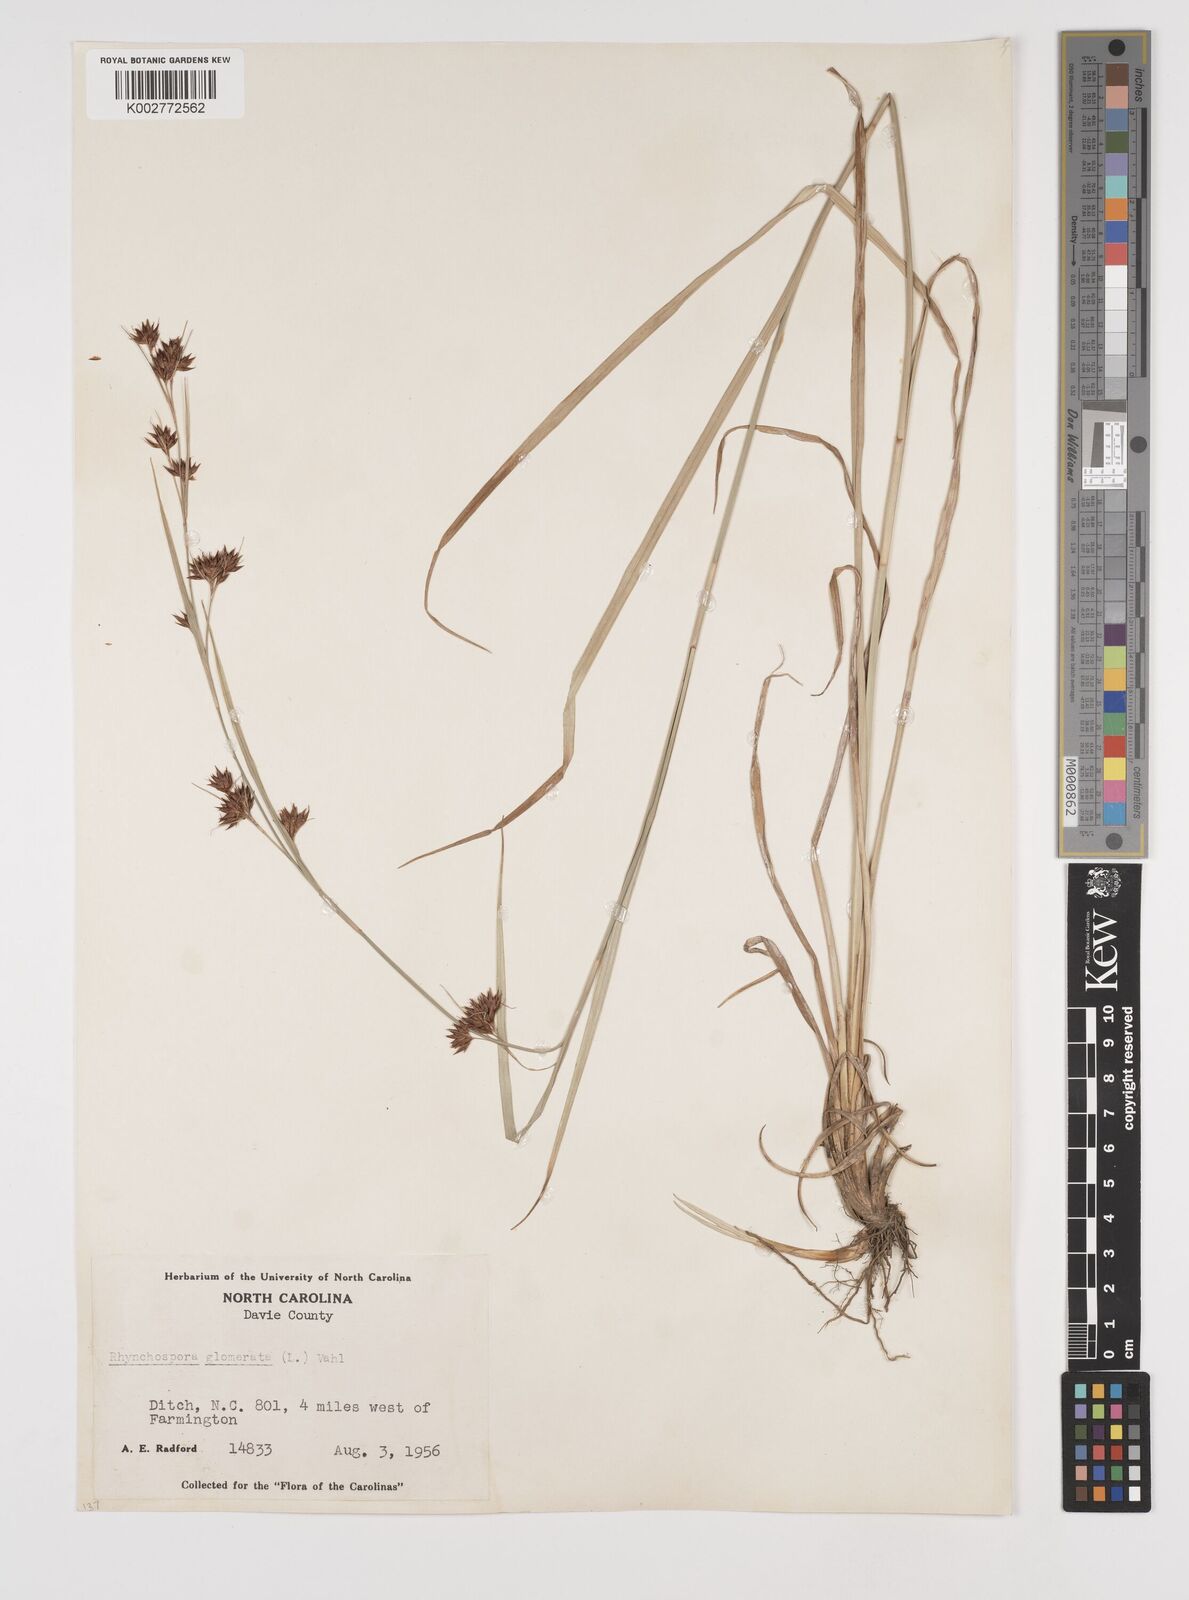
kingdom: Plantae
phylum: Tracheophyta
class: Liliopsida
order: Poales
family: Cyperaceae
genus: Rhynchospora
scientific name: Rhynchospora glomerata
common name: Cluster beak sedge
